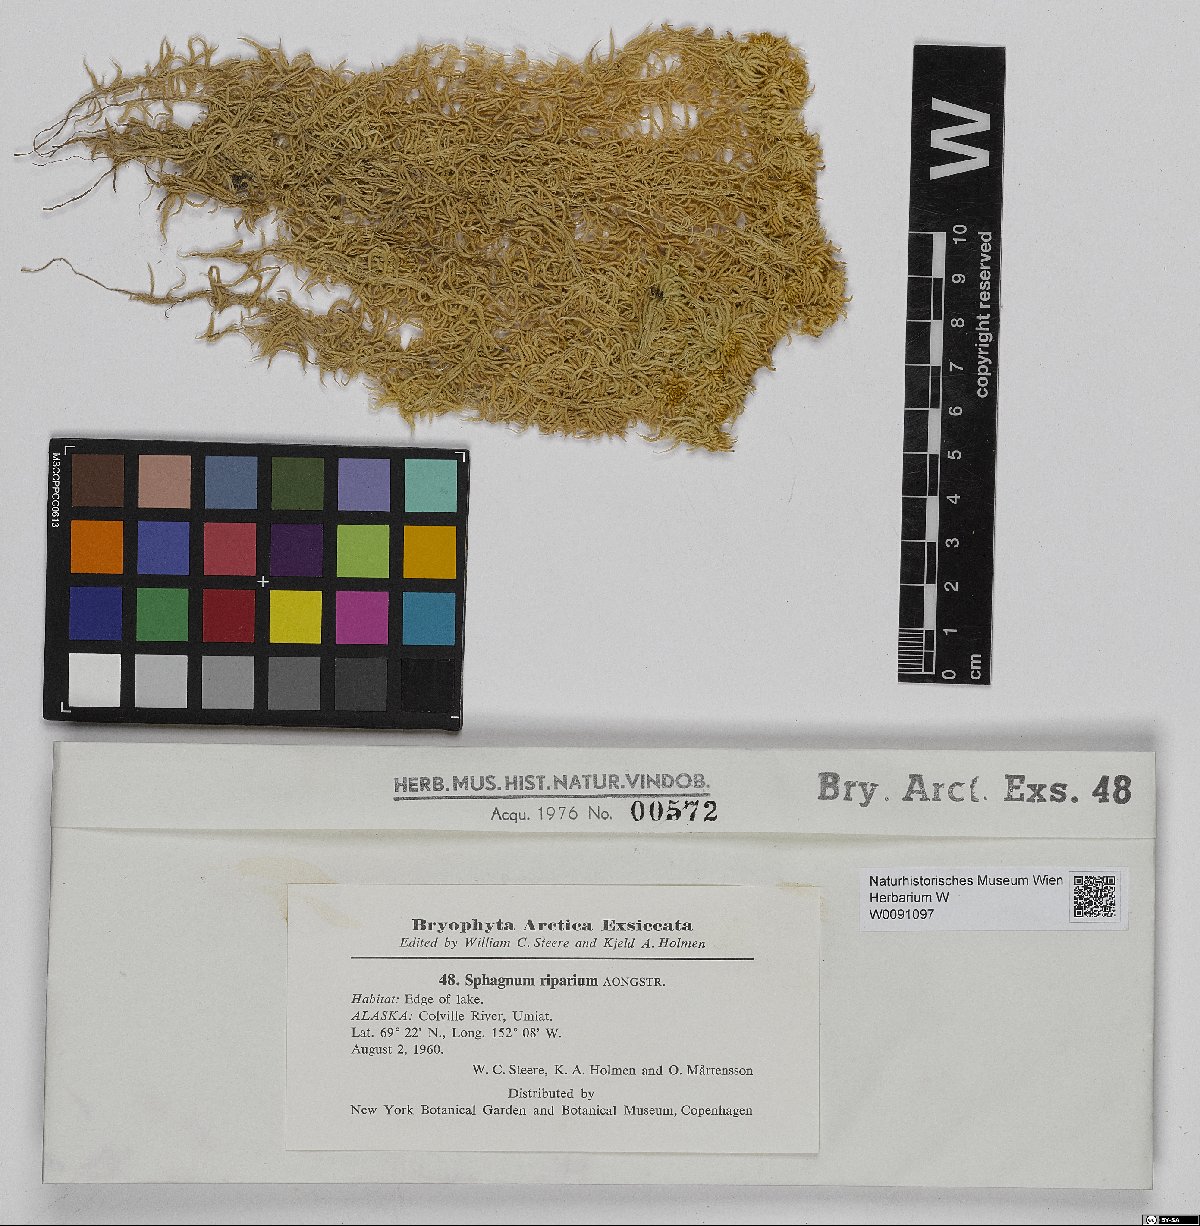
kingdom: Plantae
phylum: Bryophyta
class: Sphagnopsida
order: Sphagnales
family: Sphagnaceae
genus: Sphagnum
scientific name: Sphagnum riparium
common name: Streamside peat moss
